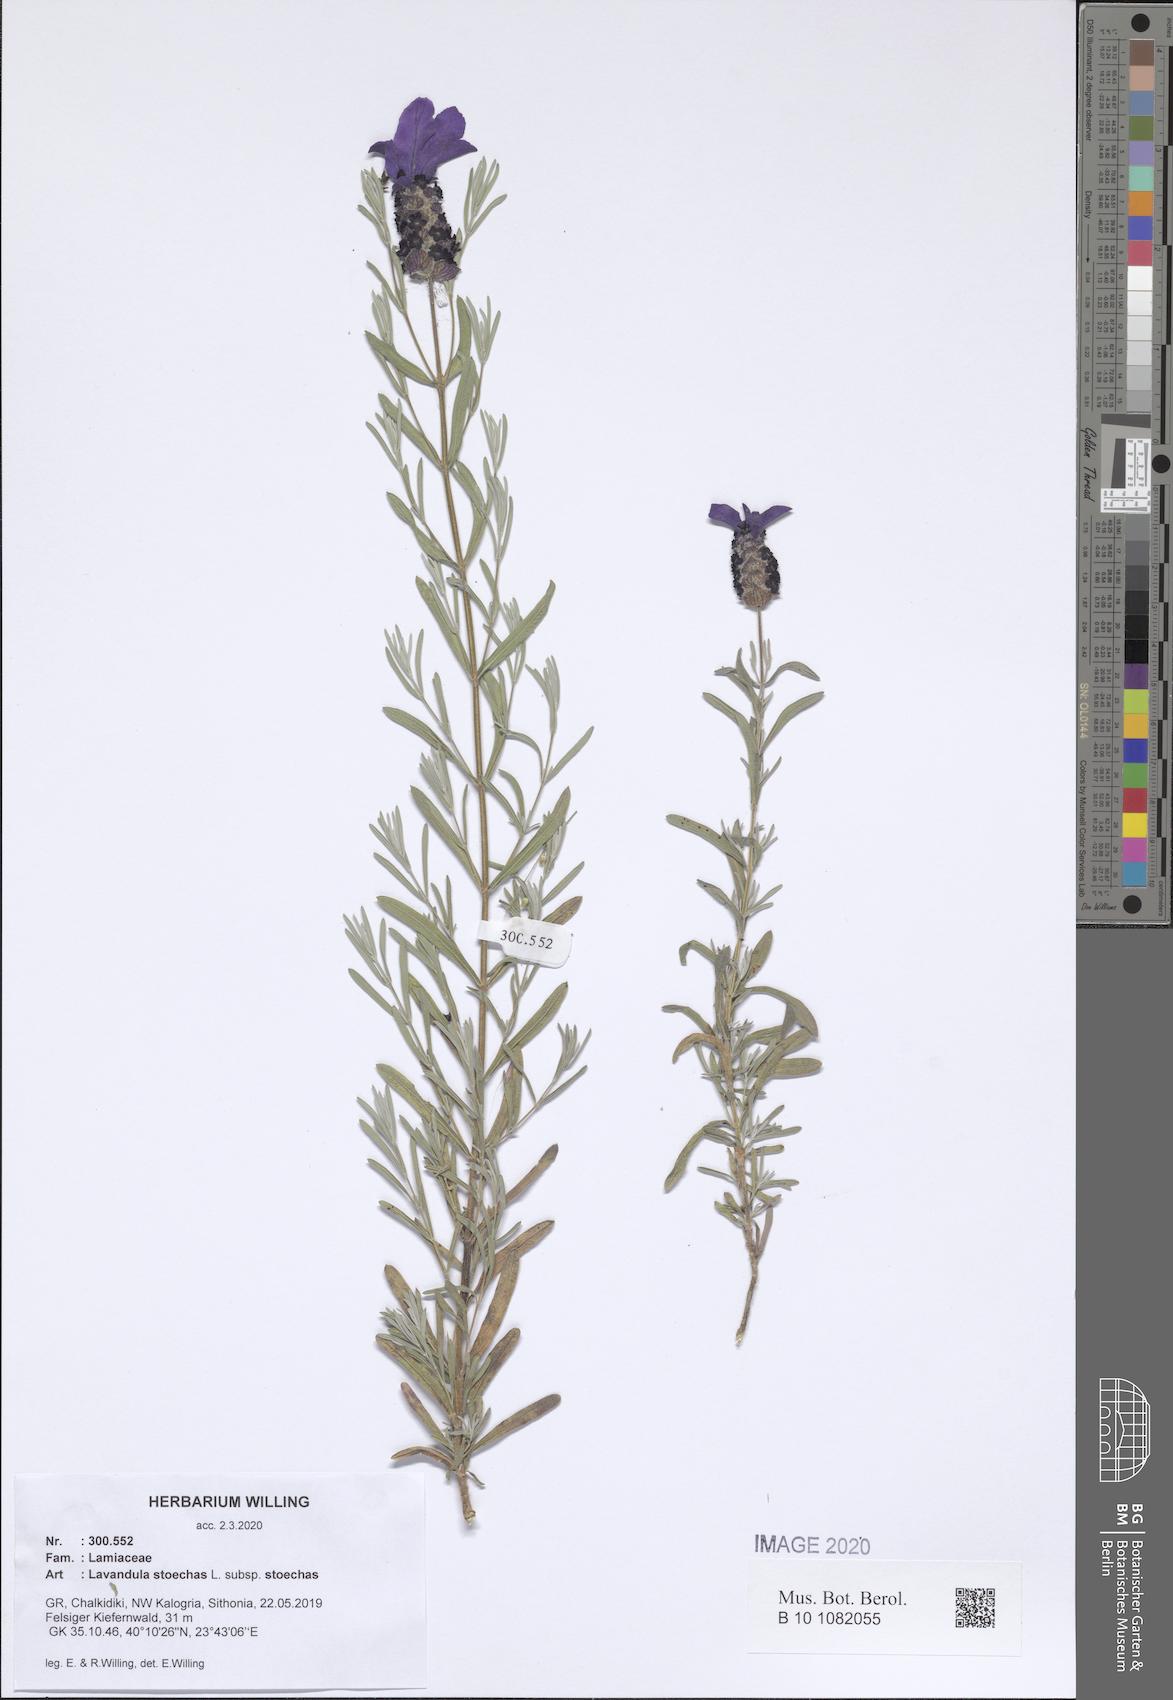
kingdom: Plantae
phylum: Tracheophyta
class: Magnoliopsida
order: Lamiales
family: Lamiaceae
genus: Lavandula
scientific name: Lavandula stoechas
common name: French lavender
